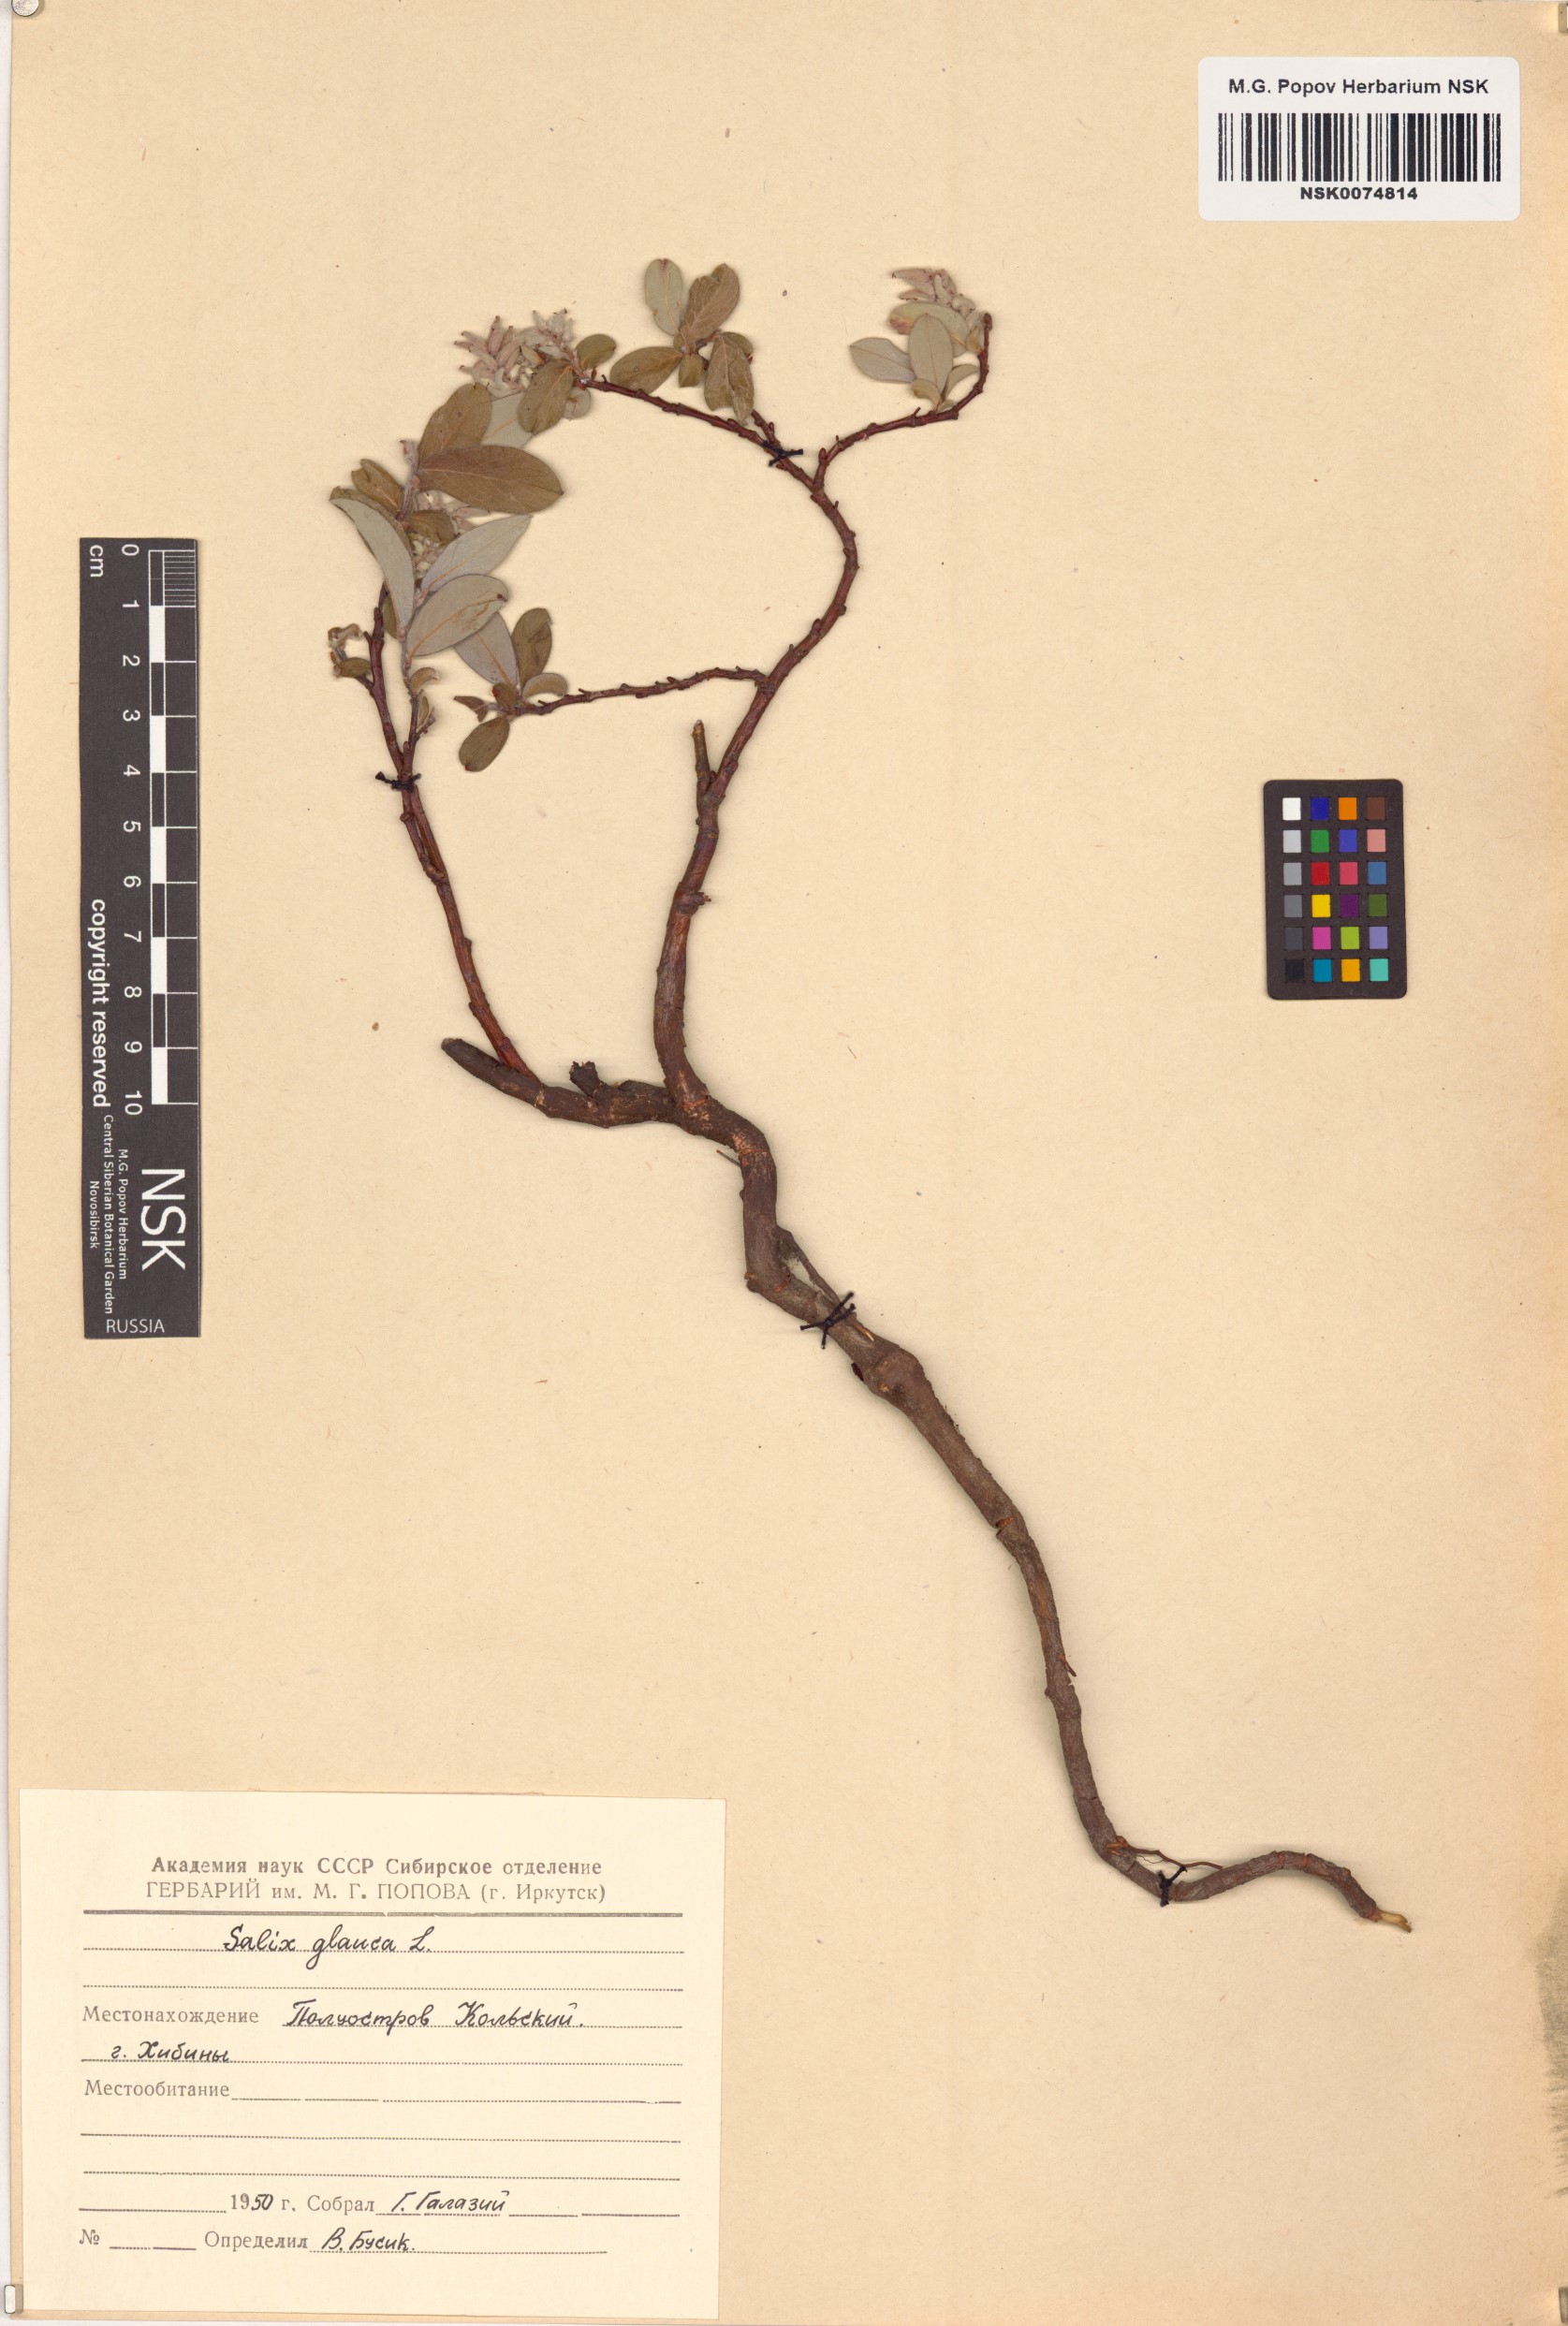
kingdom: Plantae
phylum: Tracheophyta
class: Magnoliopsida
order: Malpighiales
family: Salicaceae
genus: Salix
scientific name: Salix glauca
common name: Glaucous willow
